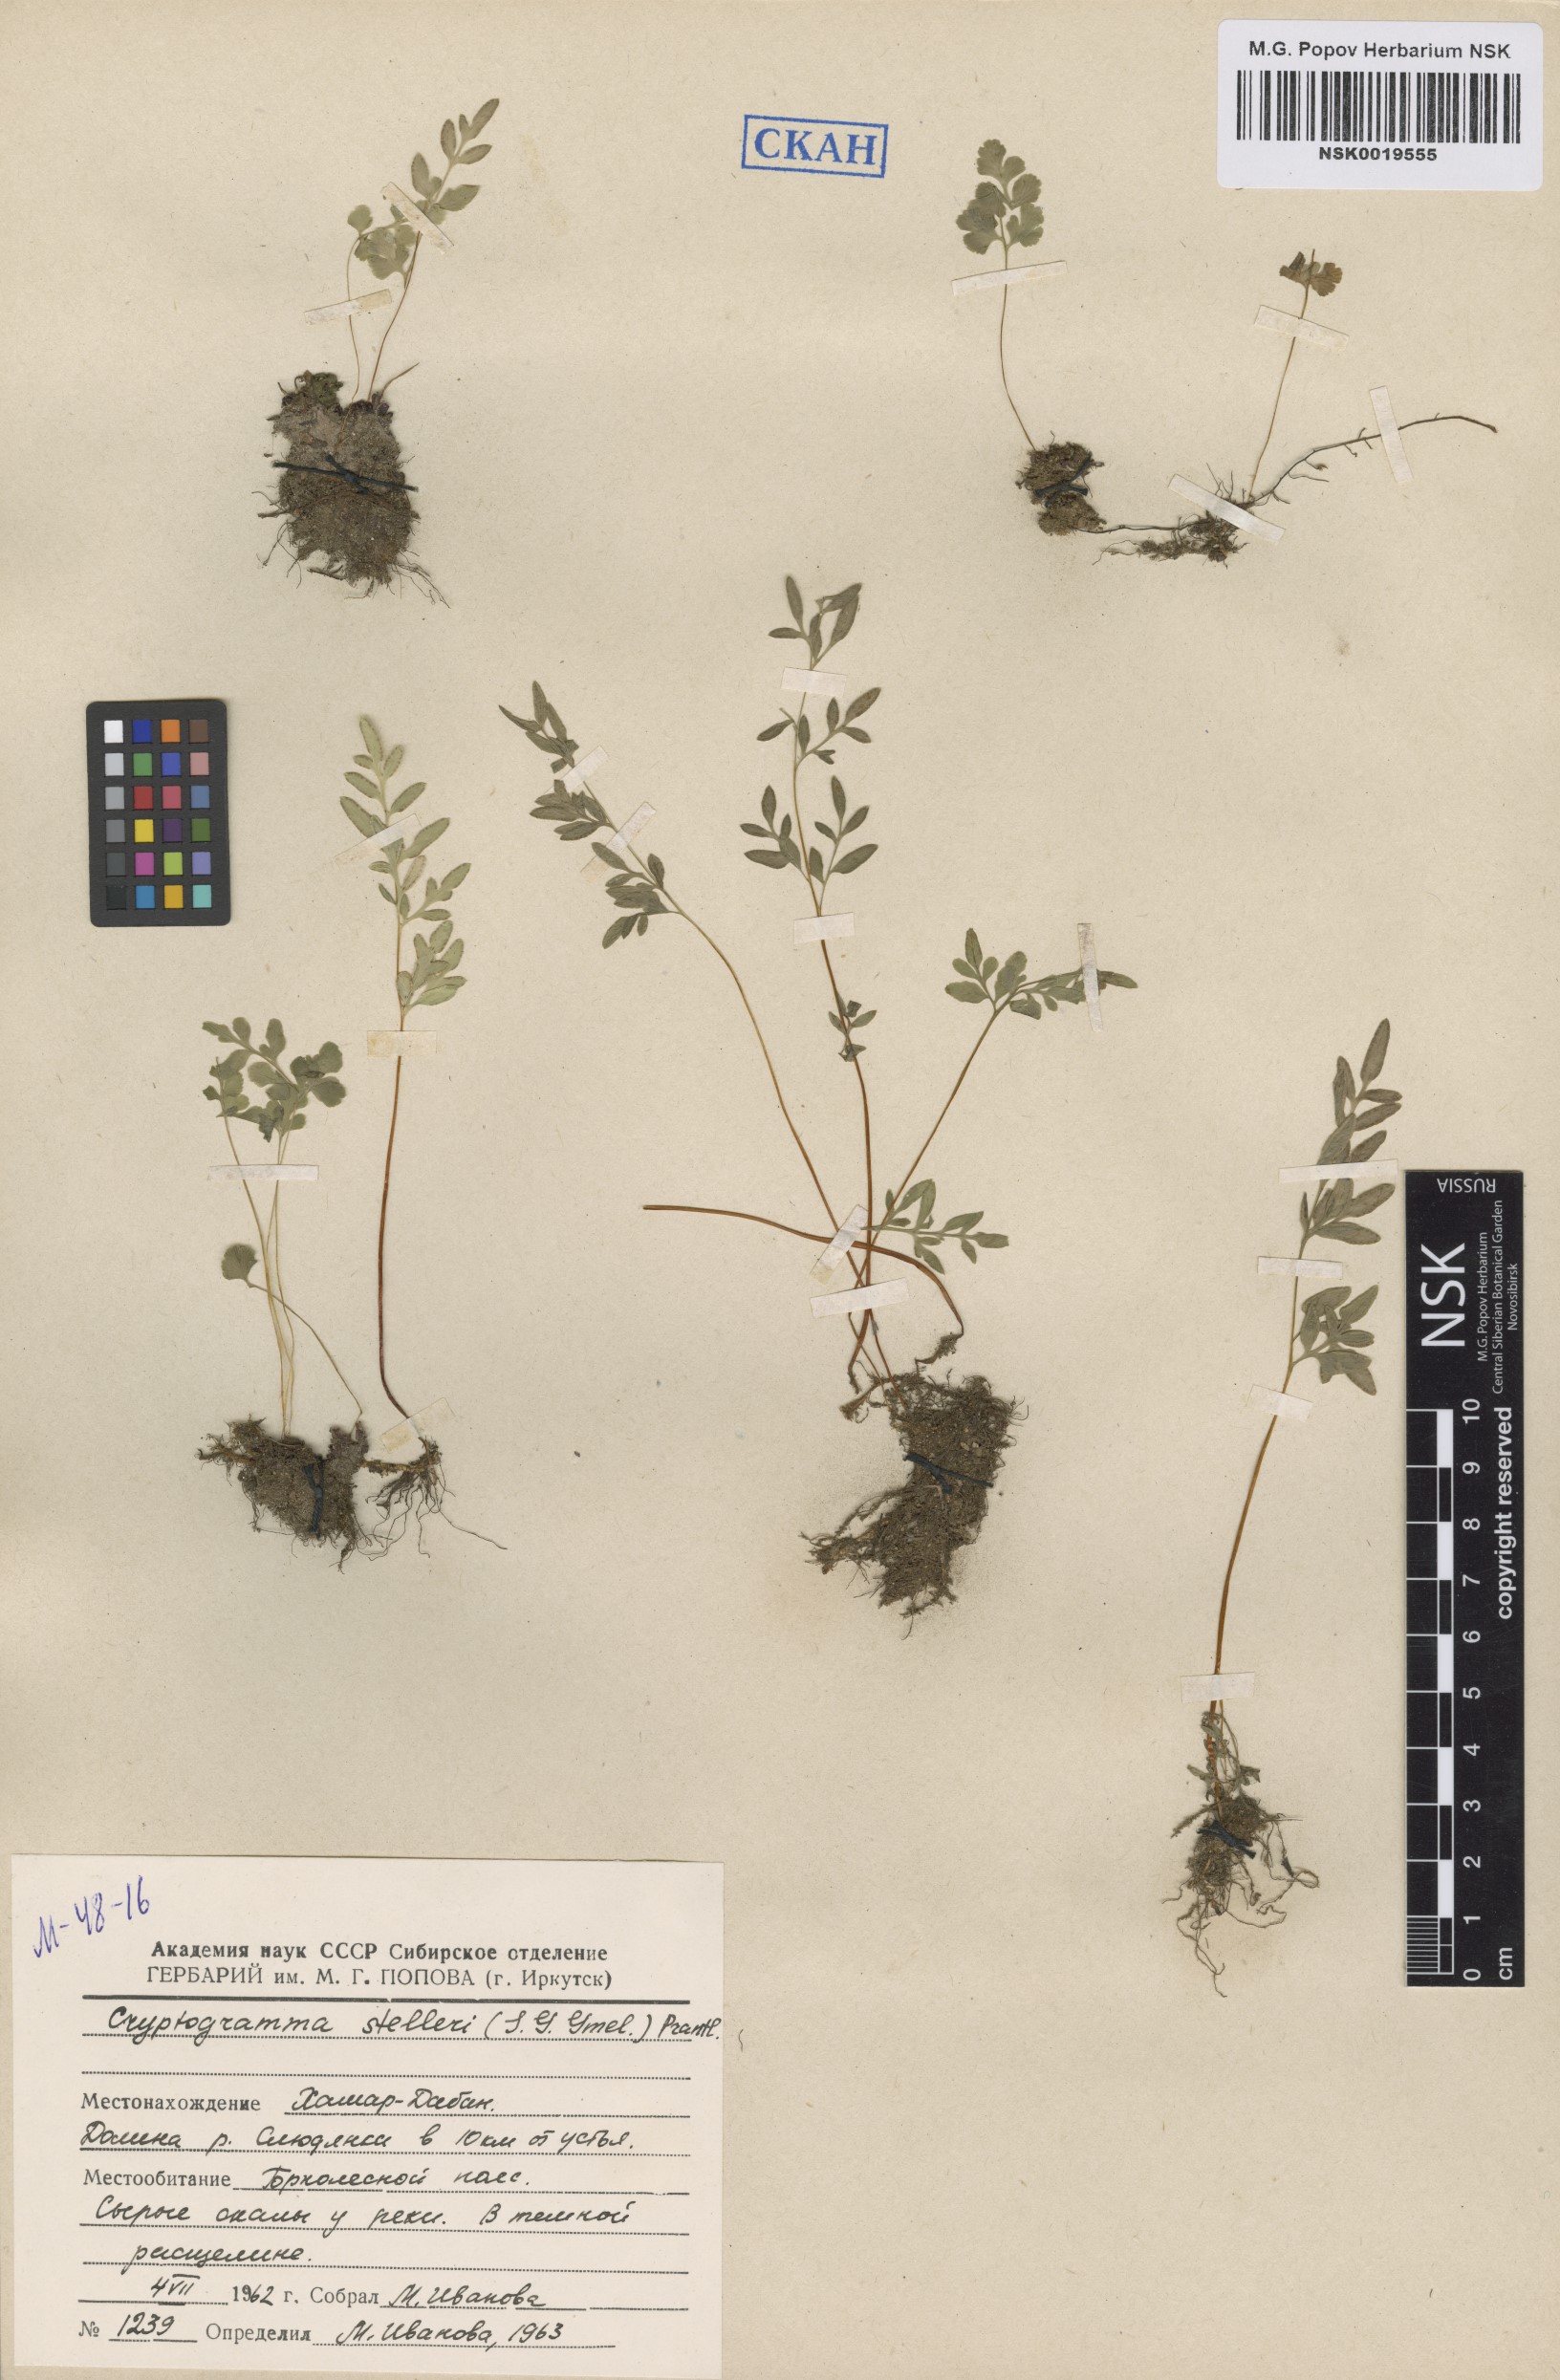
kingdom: Plantae
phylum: Tracheophyta
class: Polypodiopsida
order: Polypodiales
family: Pteridaceae
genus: Cryptogramma
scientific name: Cryptogramma stelleri
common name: Cliff-brake
